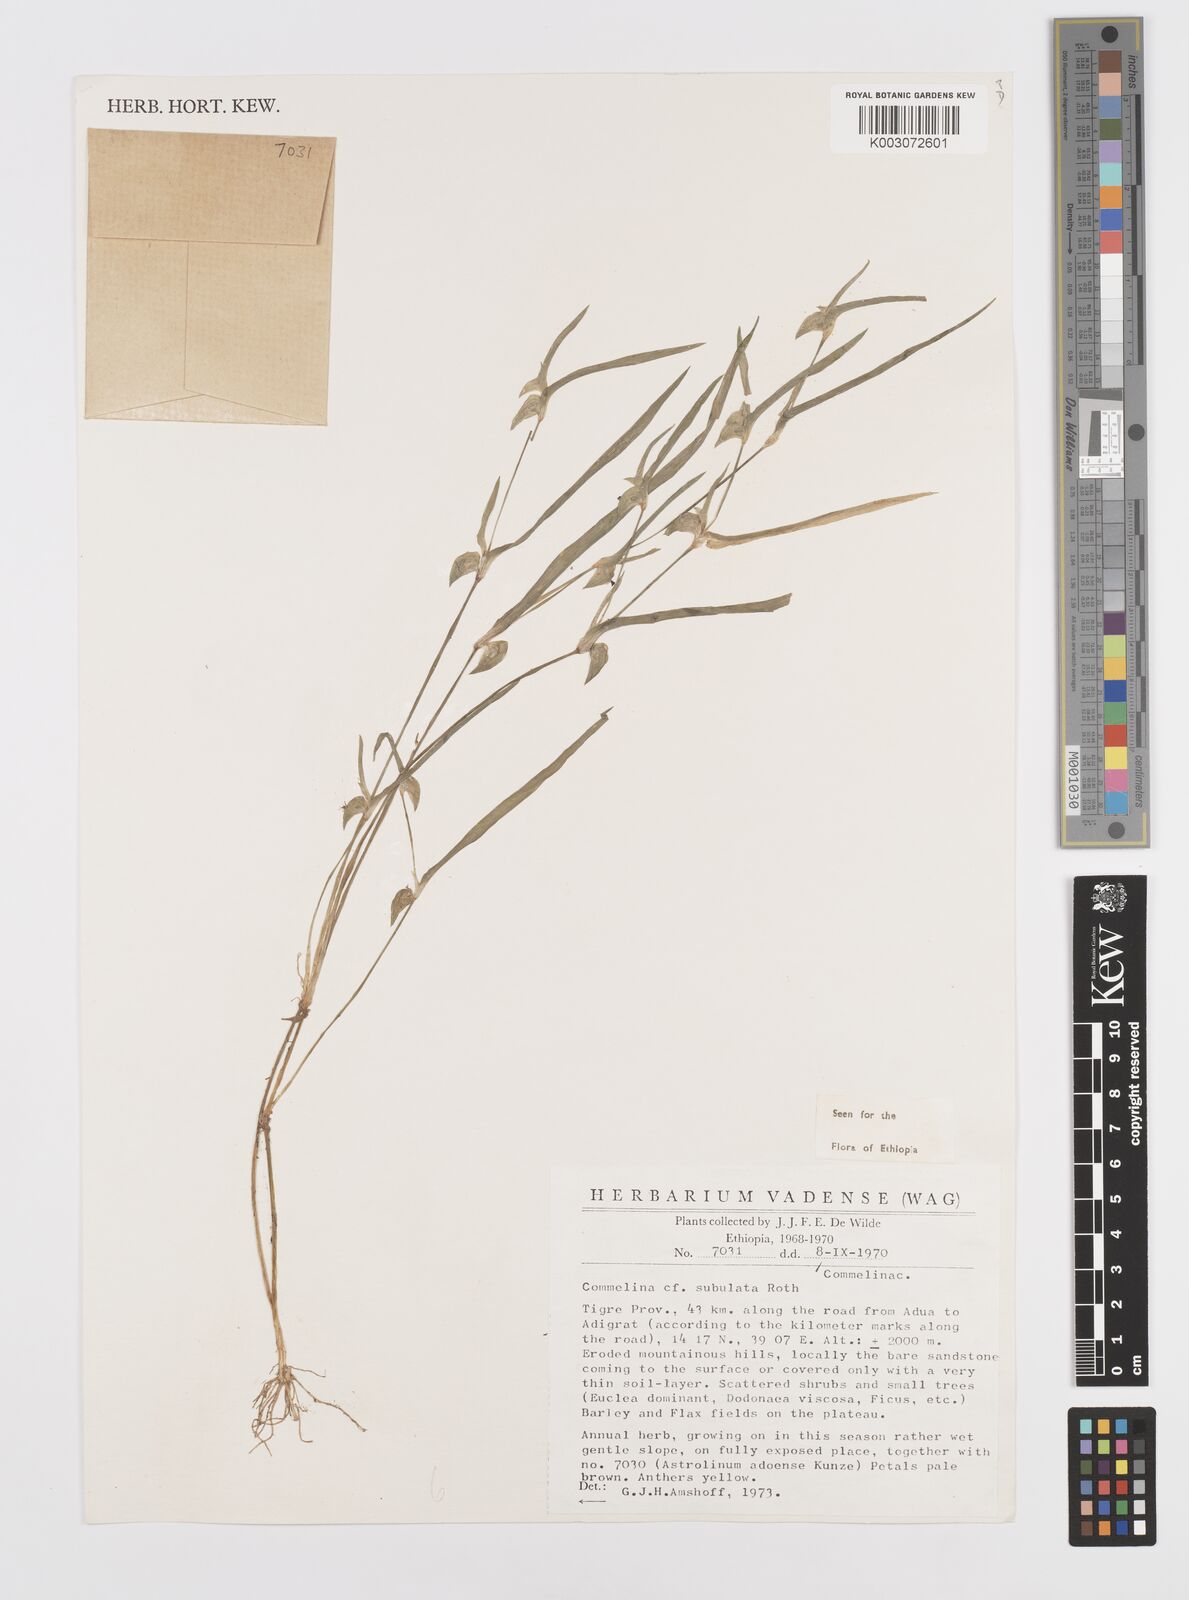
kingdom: Plantae
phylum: Tracheophyta
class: Liliopsida
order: Commelinales
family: Commelinaceae
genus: Commelina
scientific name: Commelina subulata
